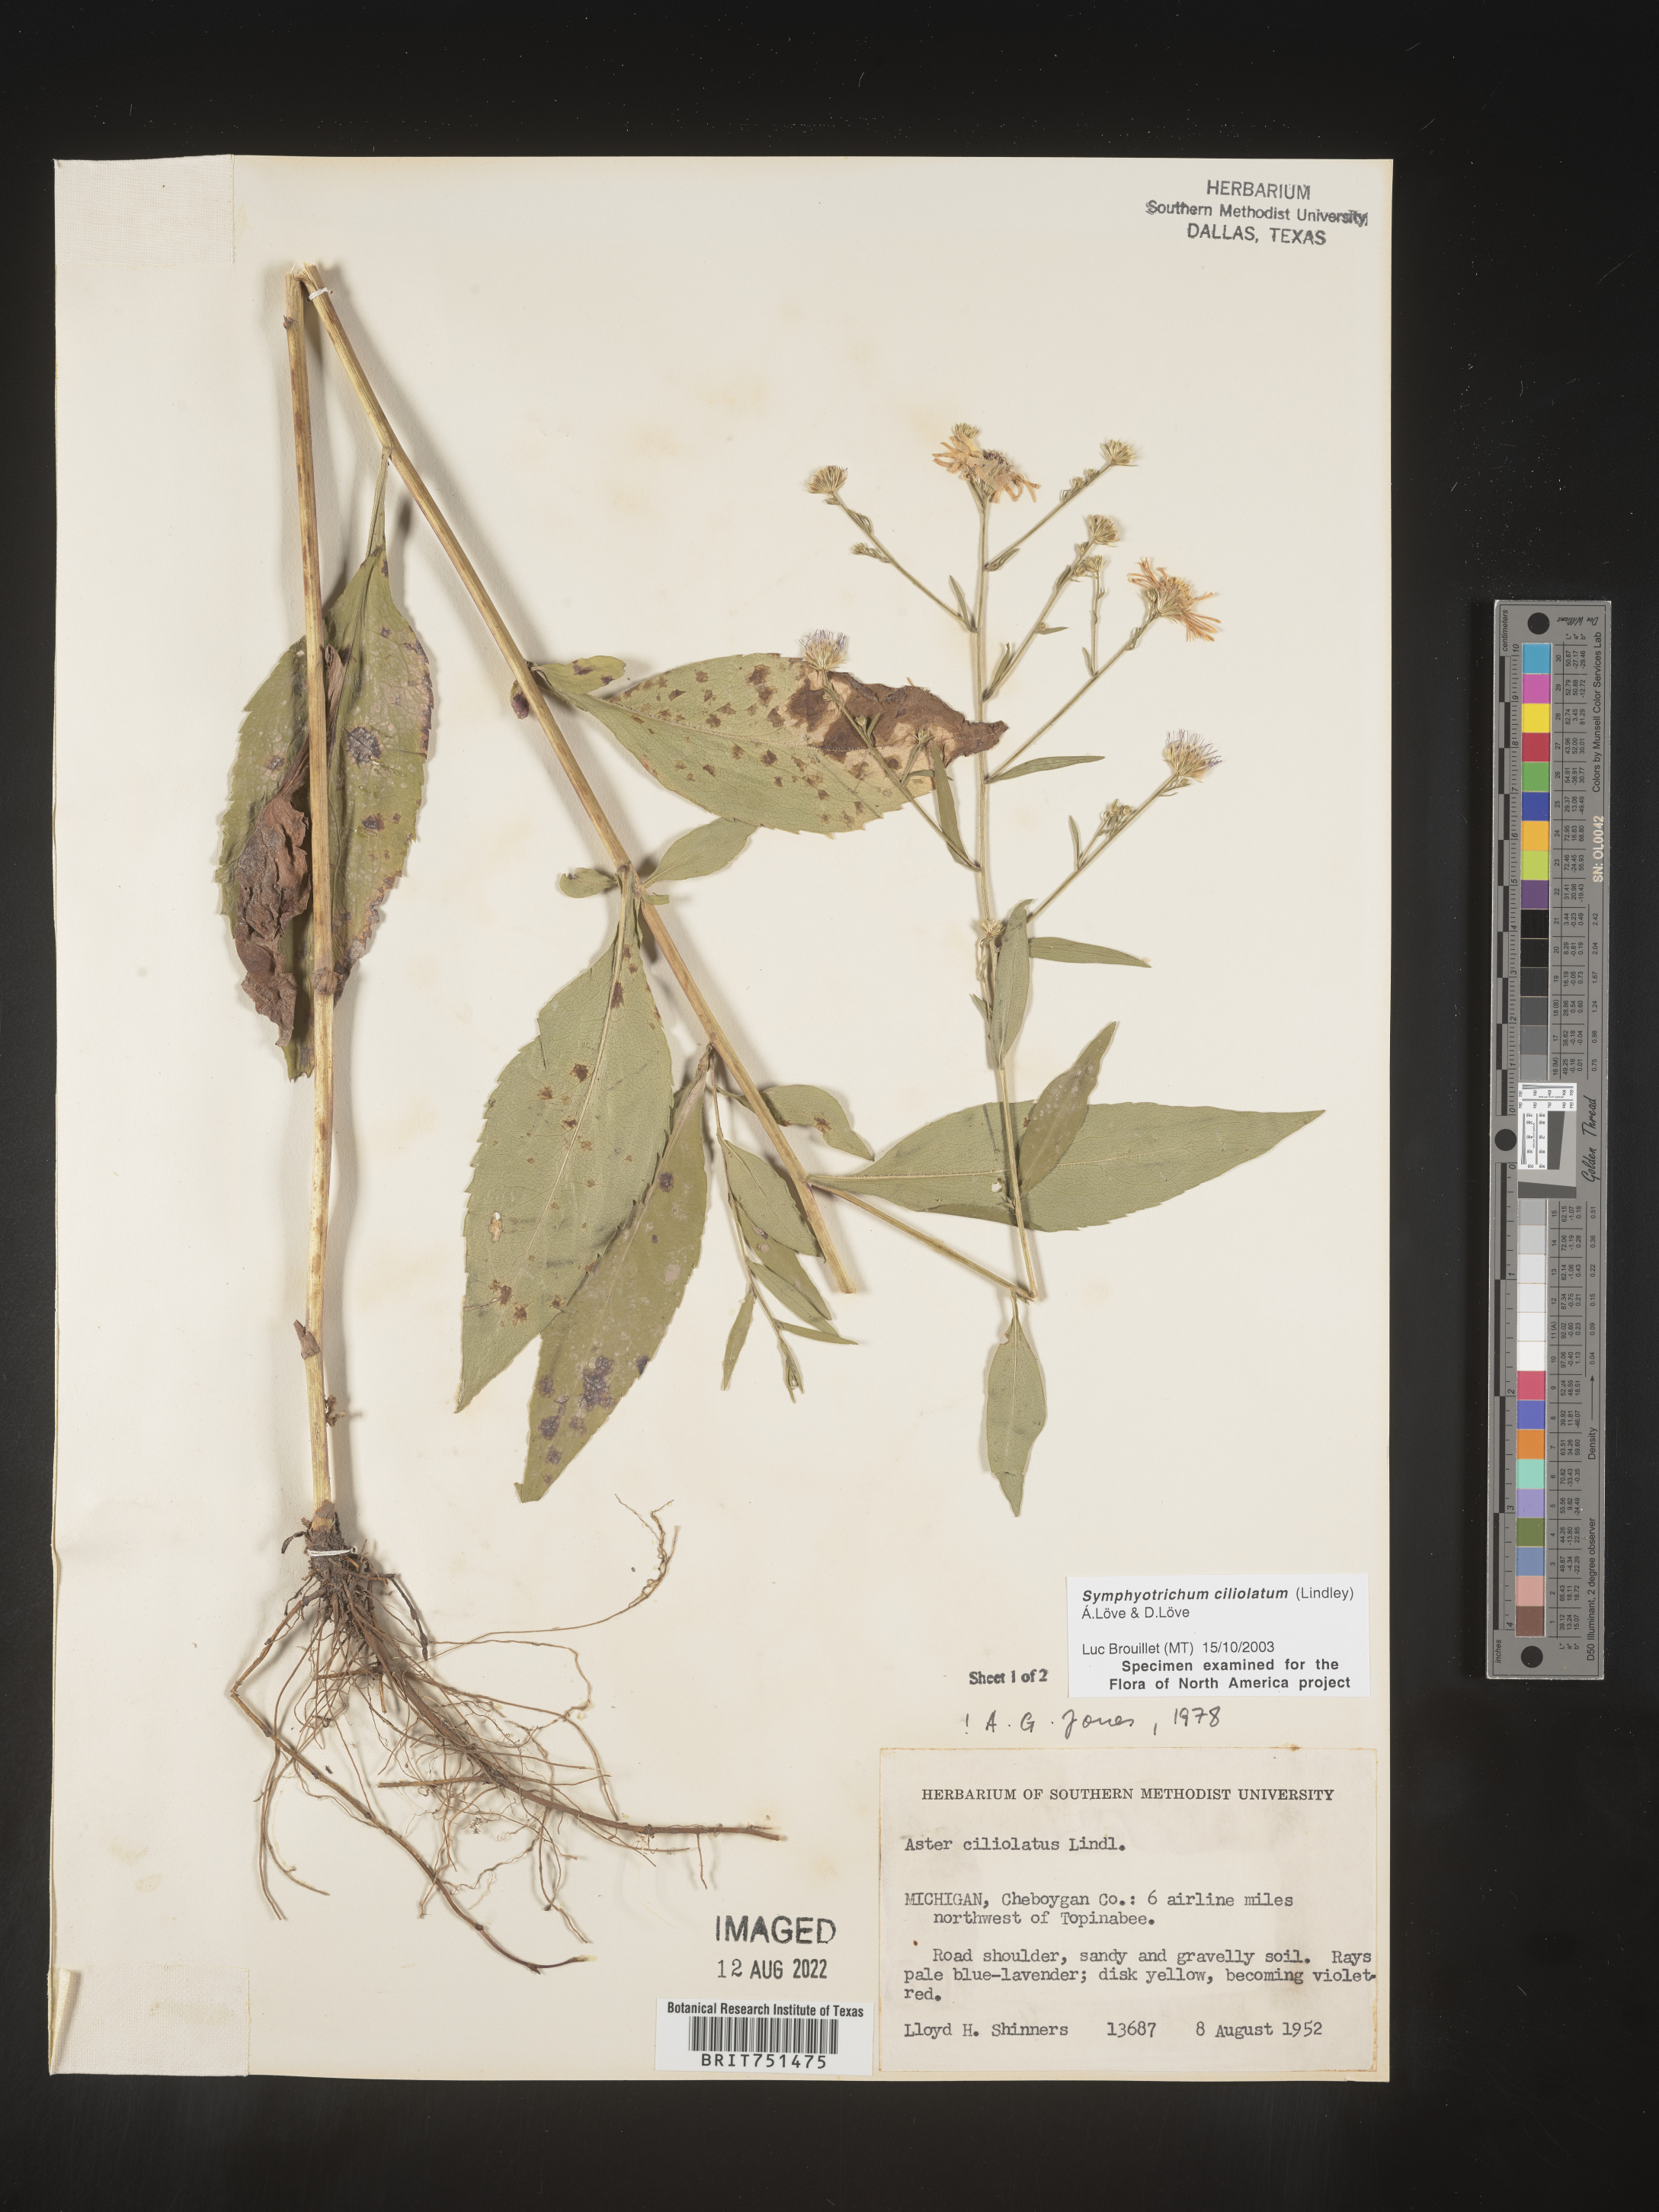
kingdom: Plantae
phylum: Tracheophyta
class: Magnoliopsida
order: Asterales
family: Asteraceae
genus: Symphyotrichum
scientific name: Symphyotrichum ciliolatum
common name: Fringed blue aster
